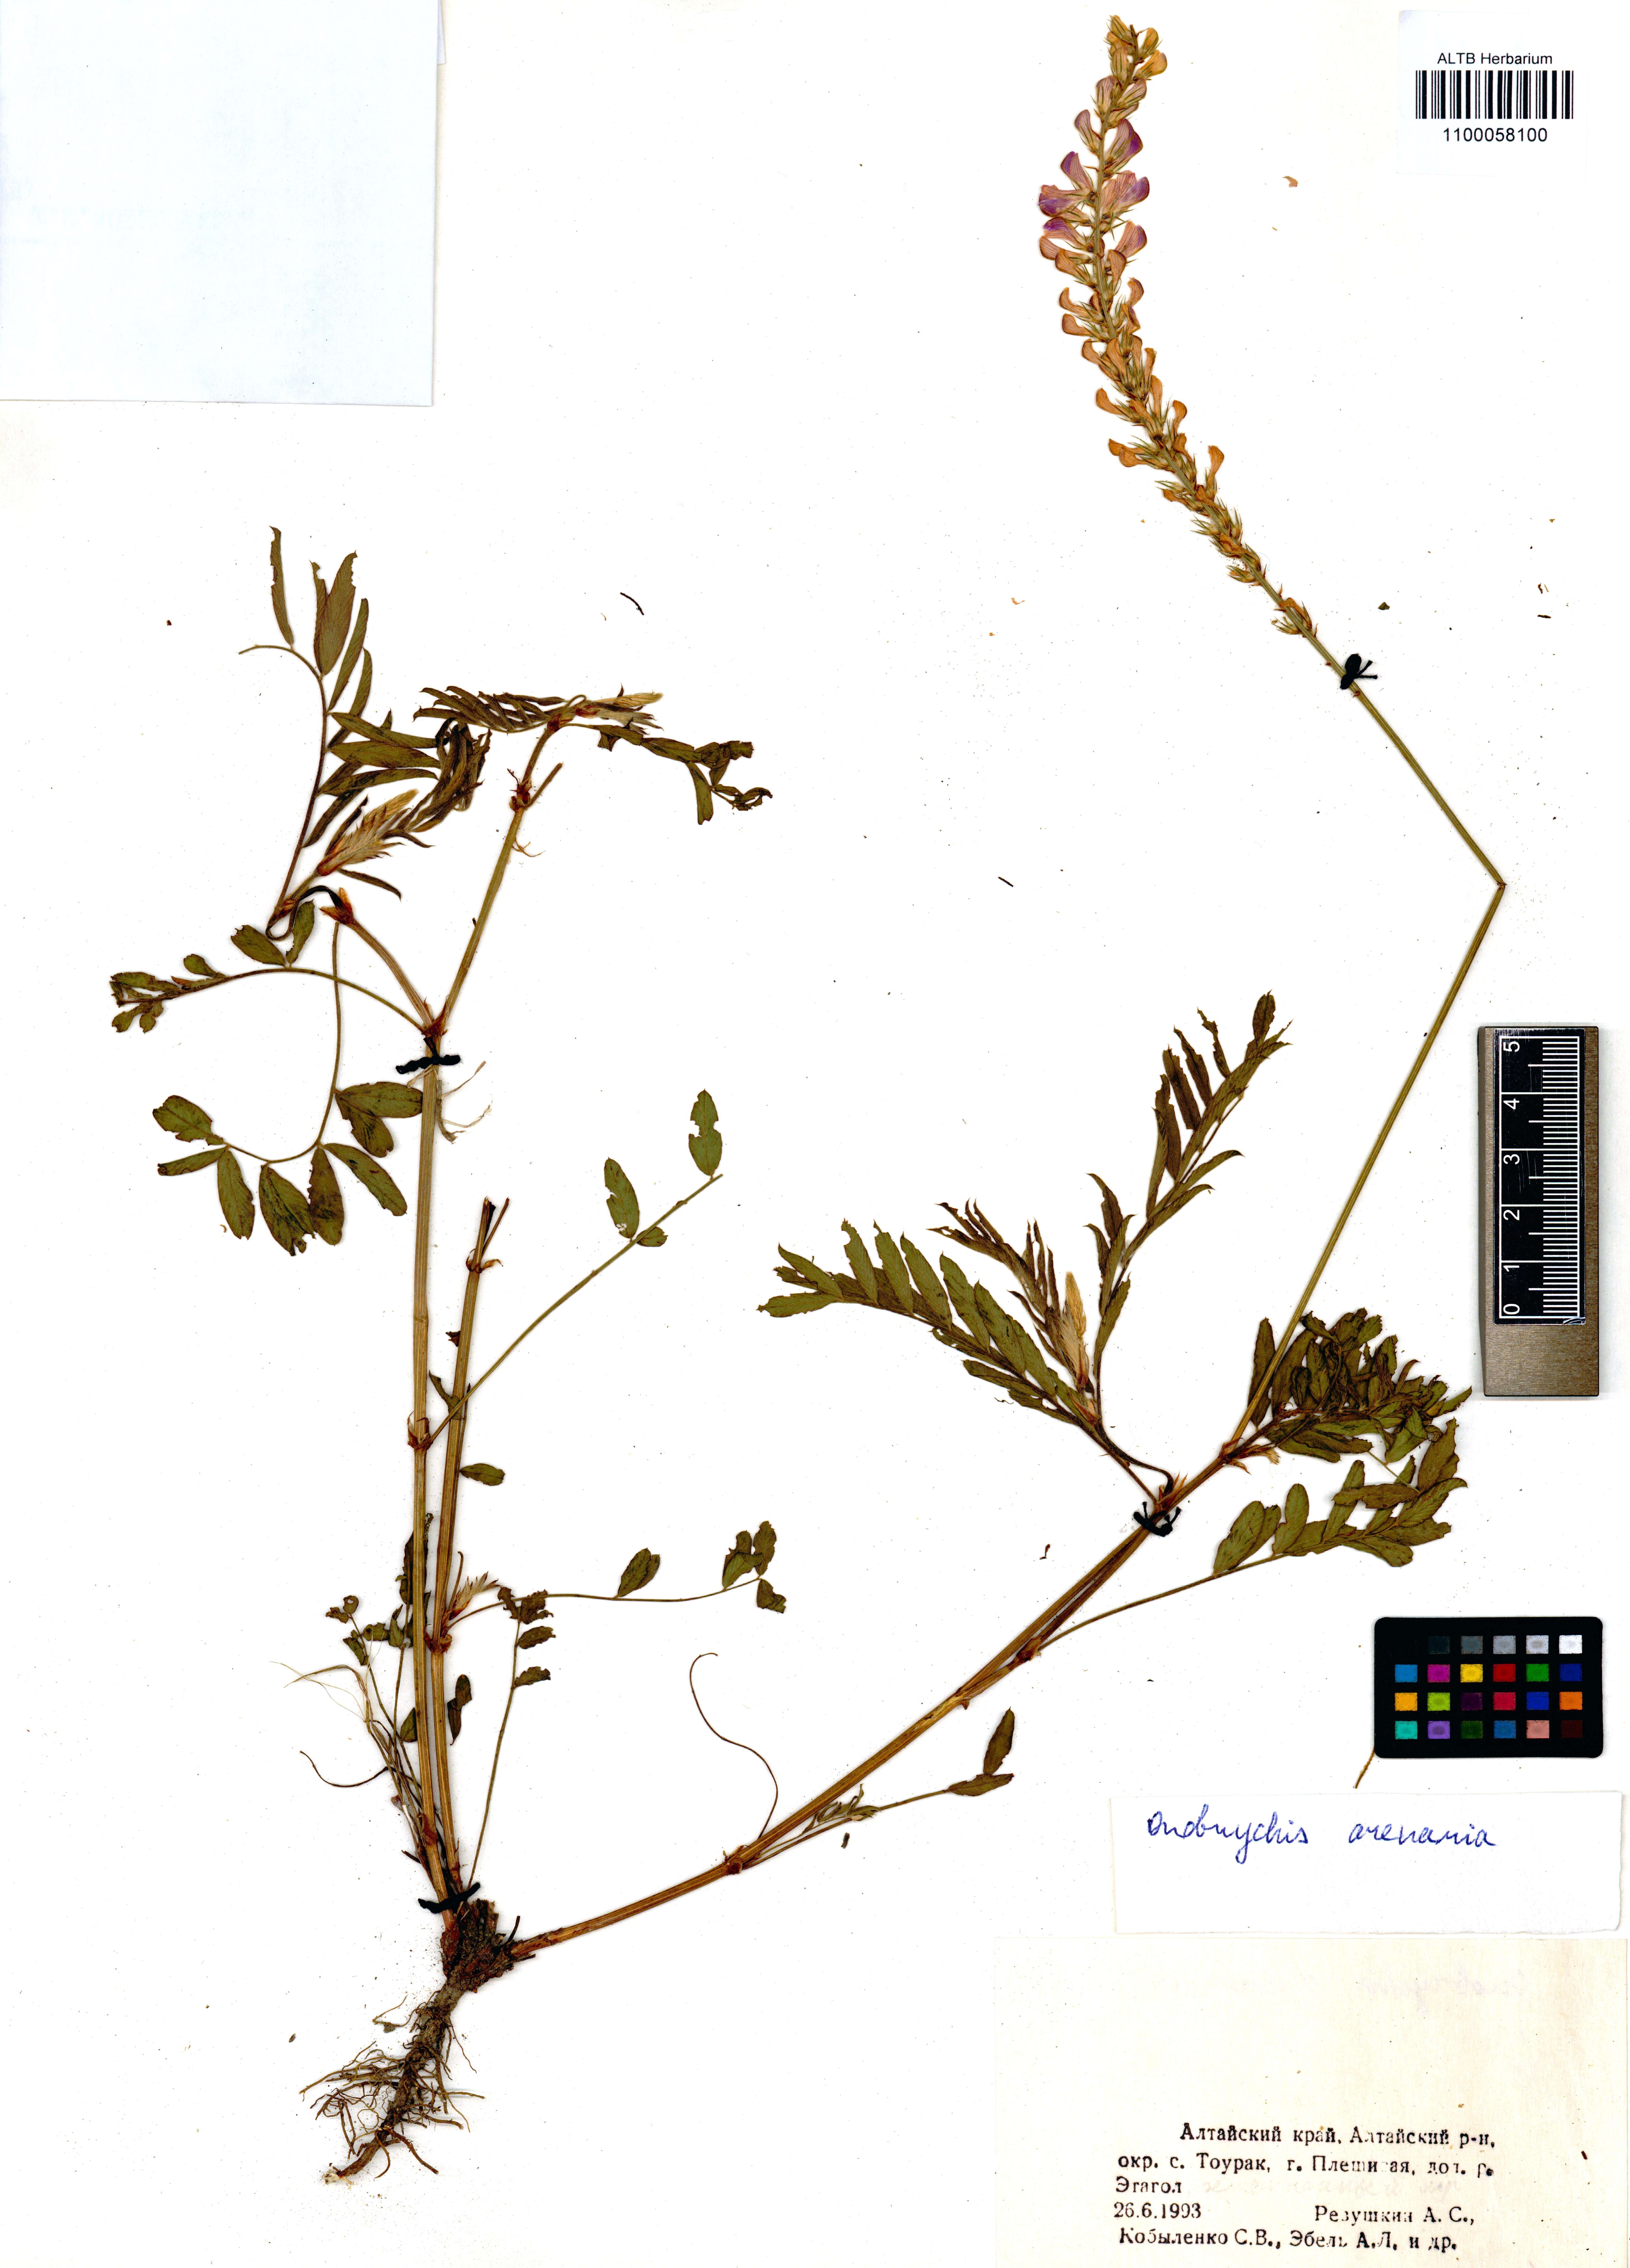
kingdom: Plantae
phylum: Tracheophyta
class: Magnoliopsida
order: Fabales
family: Fabaceae
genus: Onobrychis
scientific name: Onobrychis arenaria
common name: Sand esparcet
